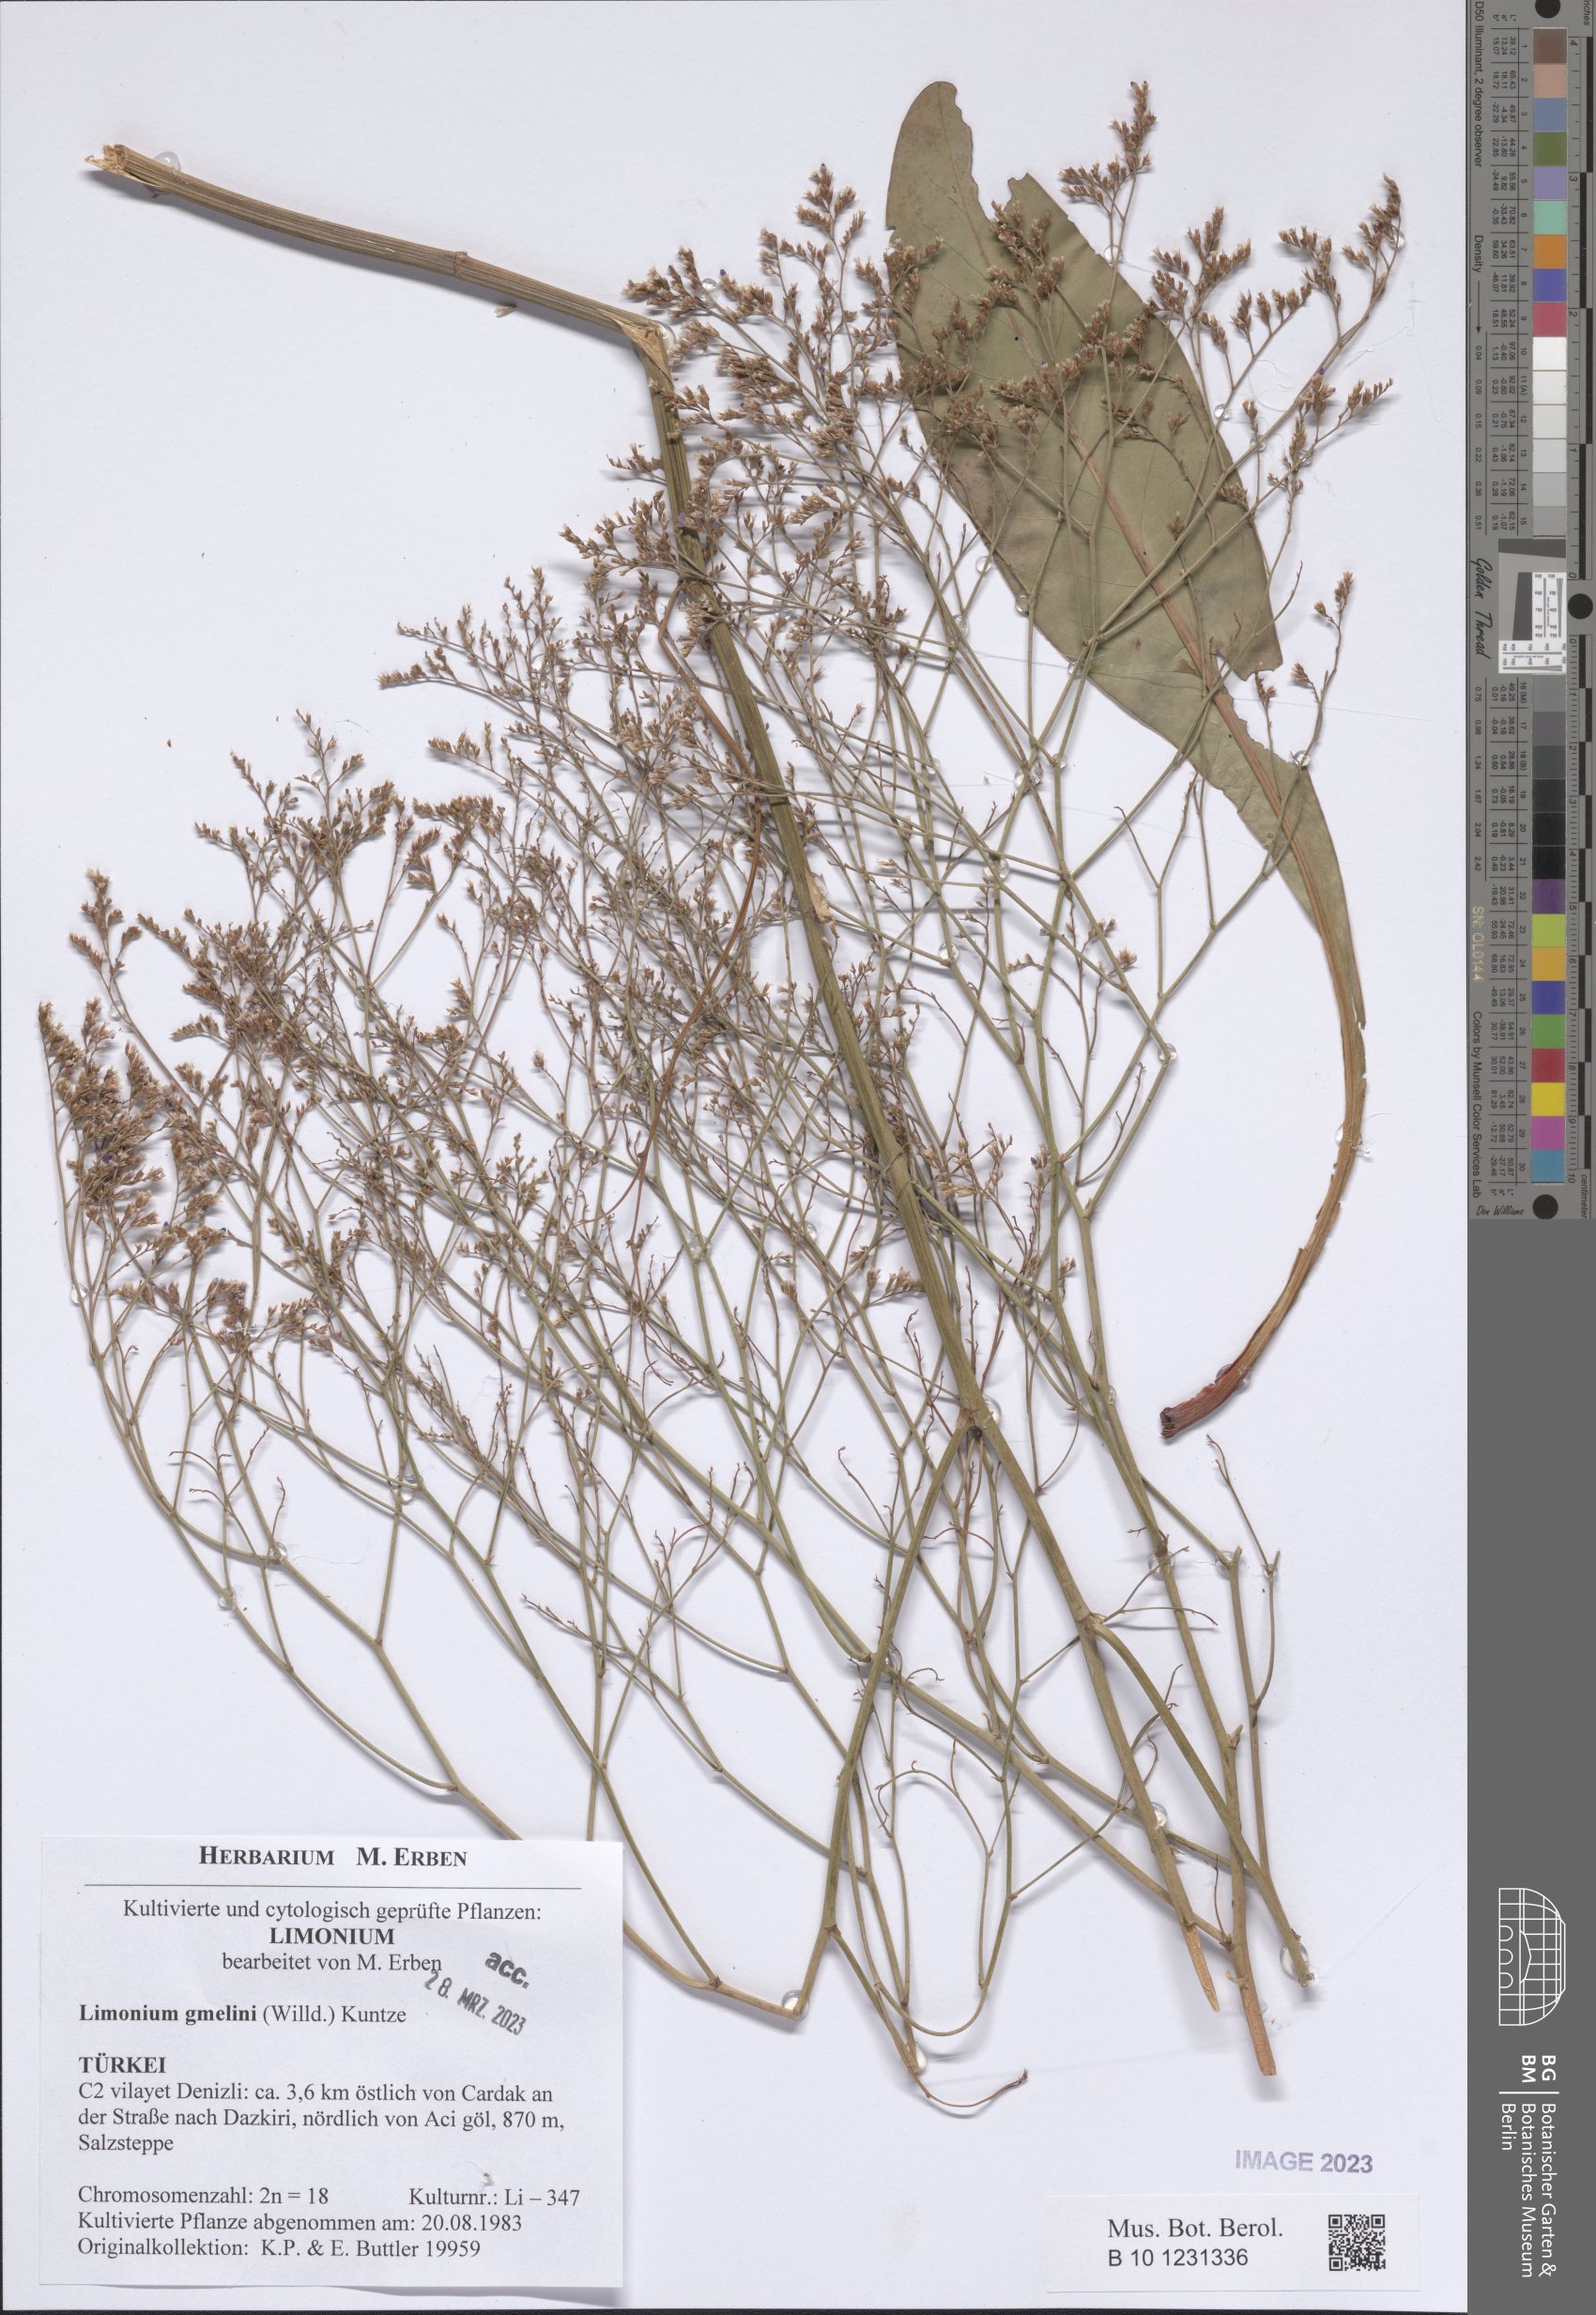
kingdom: Plantae
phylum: Tracheophyta
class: Magnoliopsida
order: Caryophyllales
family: Plumbaginaceae
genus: Limonium
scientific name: Limonium gmelini
